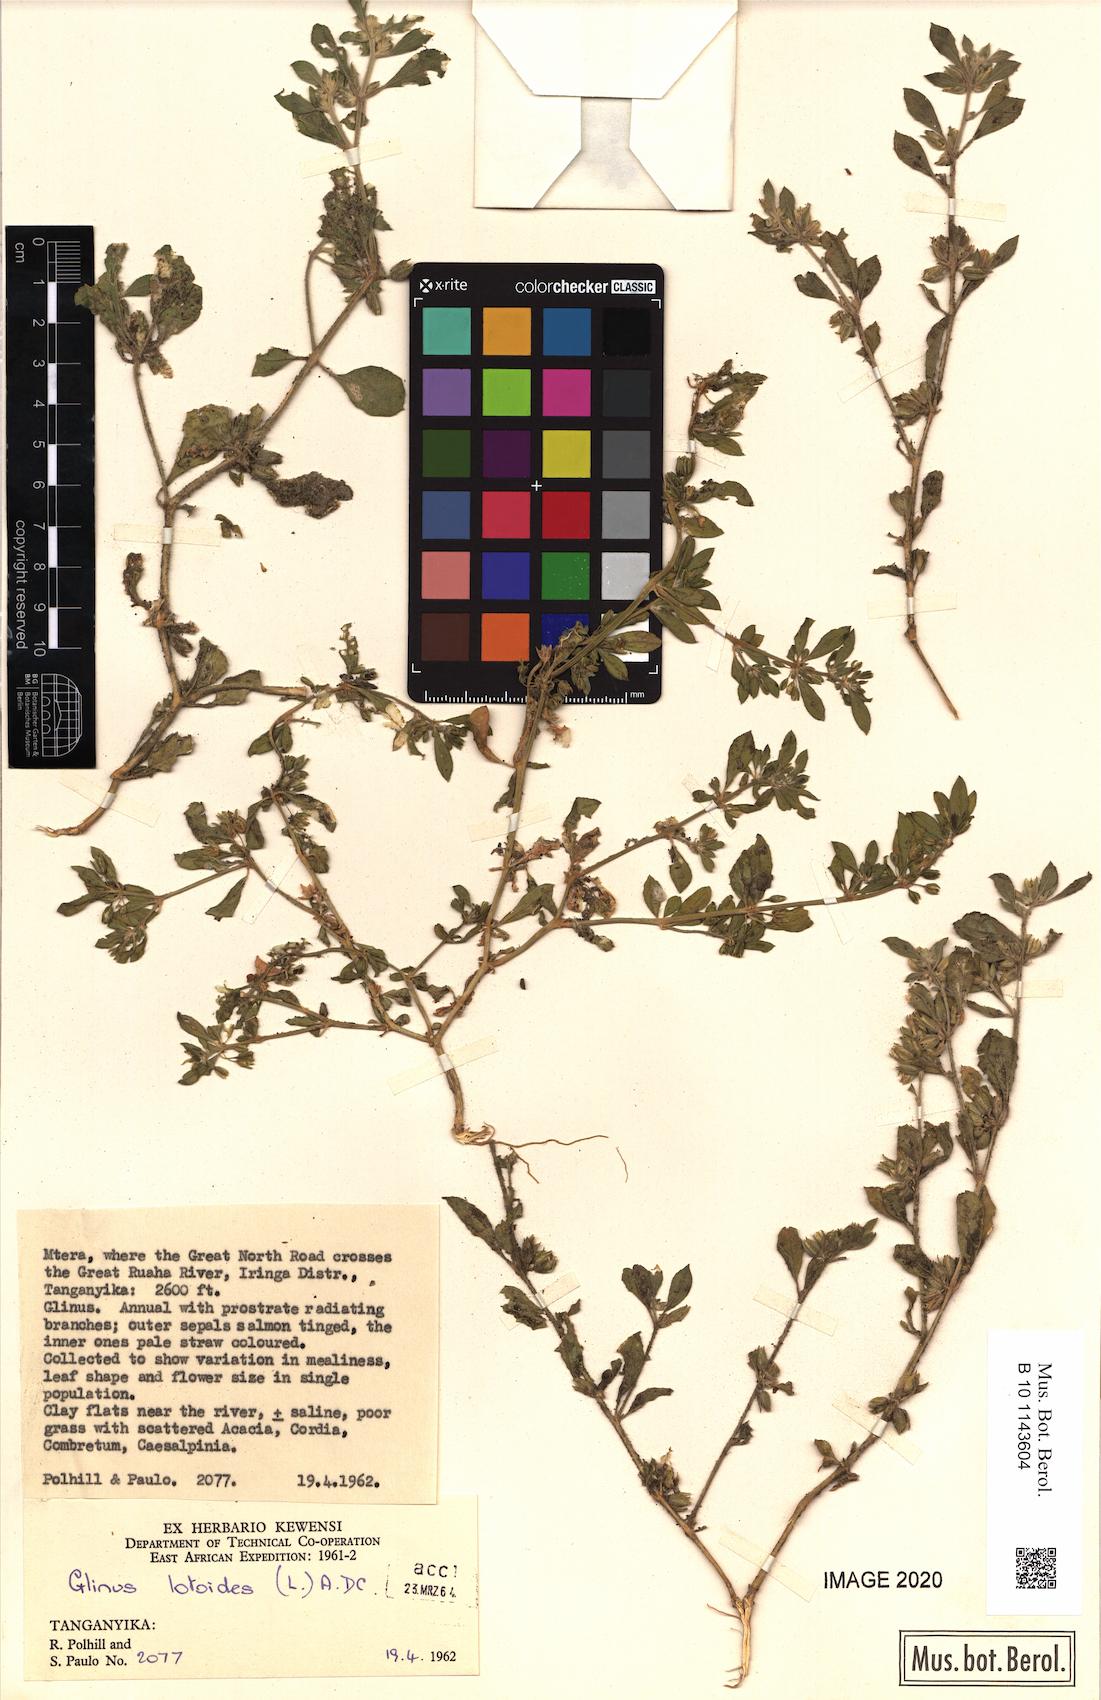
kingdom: Plantae
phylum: Tracheophyta
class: Magnoliopsida
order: Caryophyllales
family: Molluginaceae
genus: Glinus
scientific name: Glinus lotoides
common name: Lotus sweetjuice
